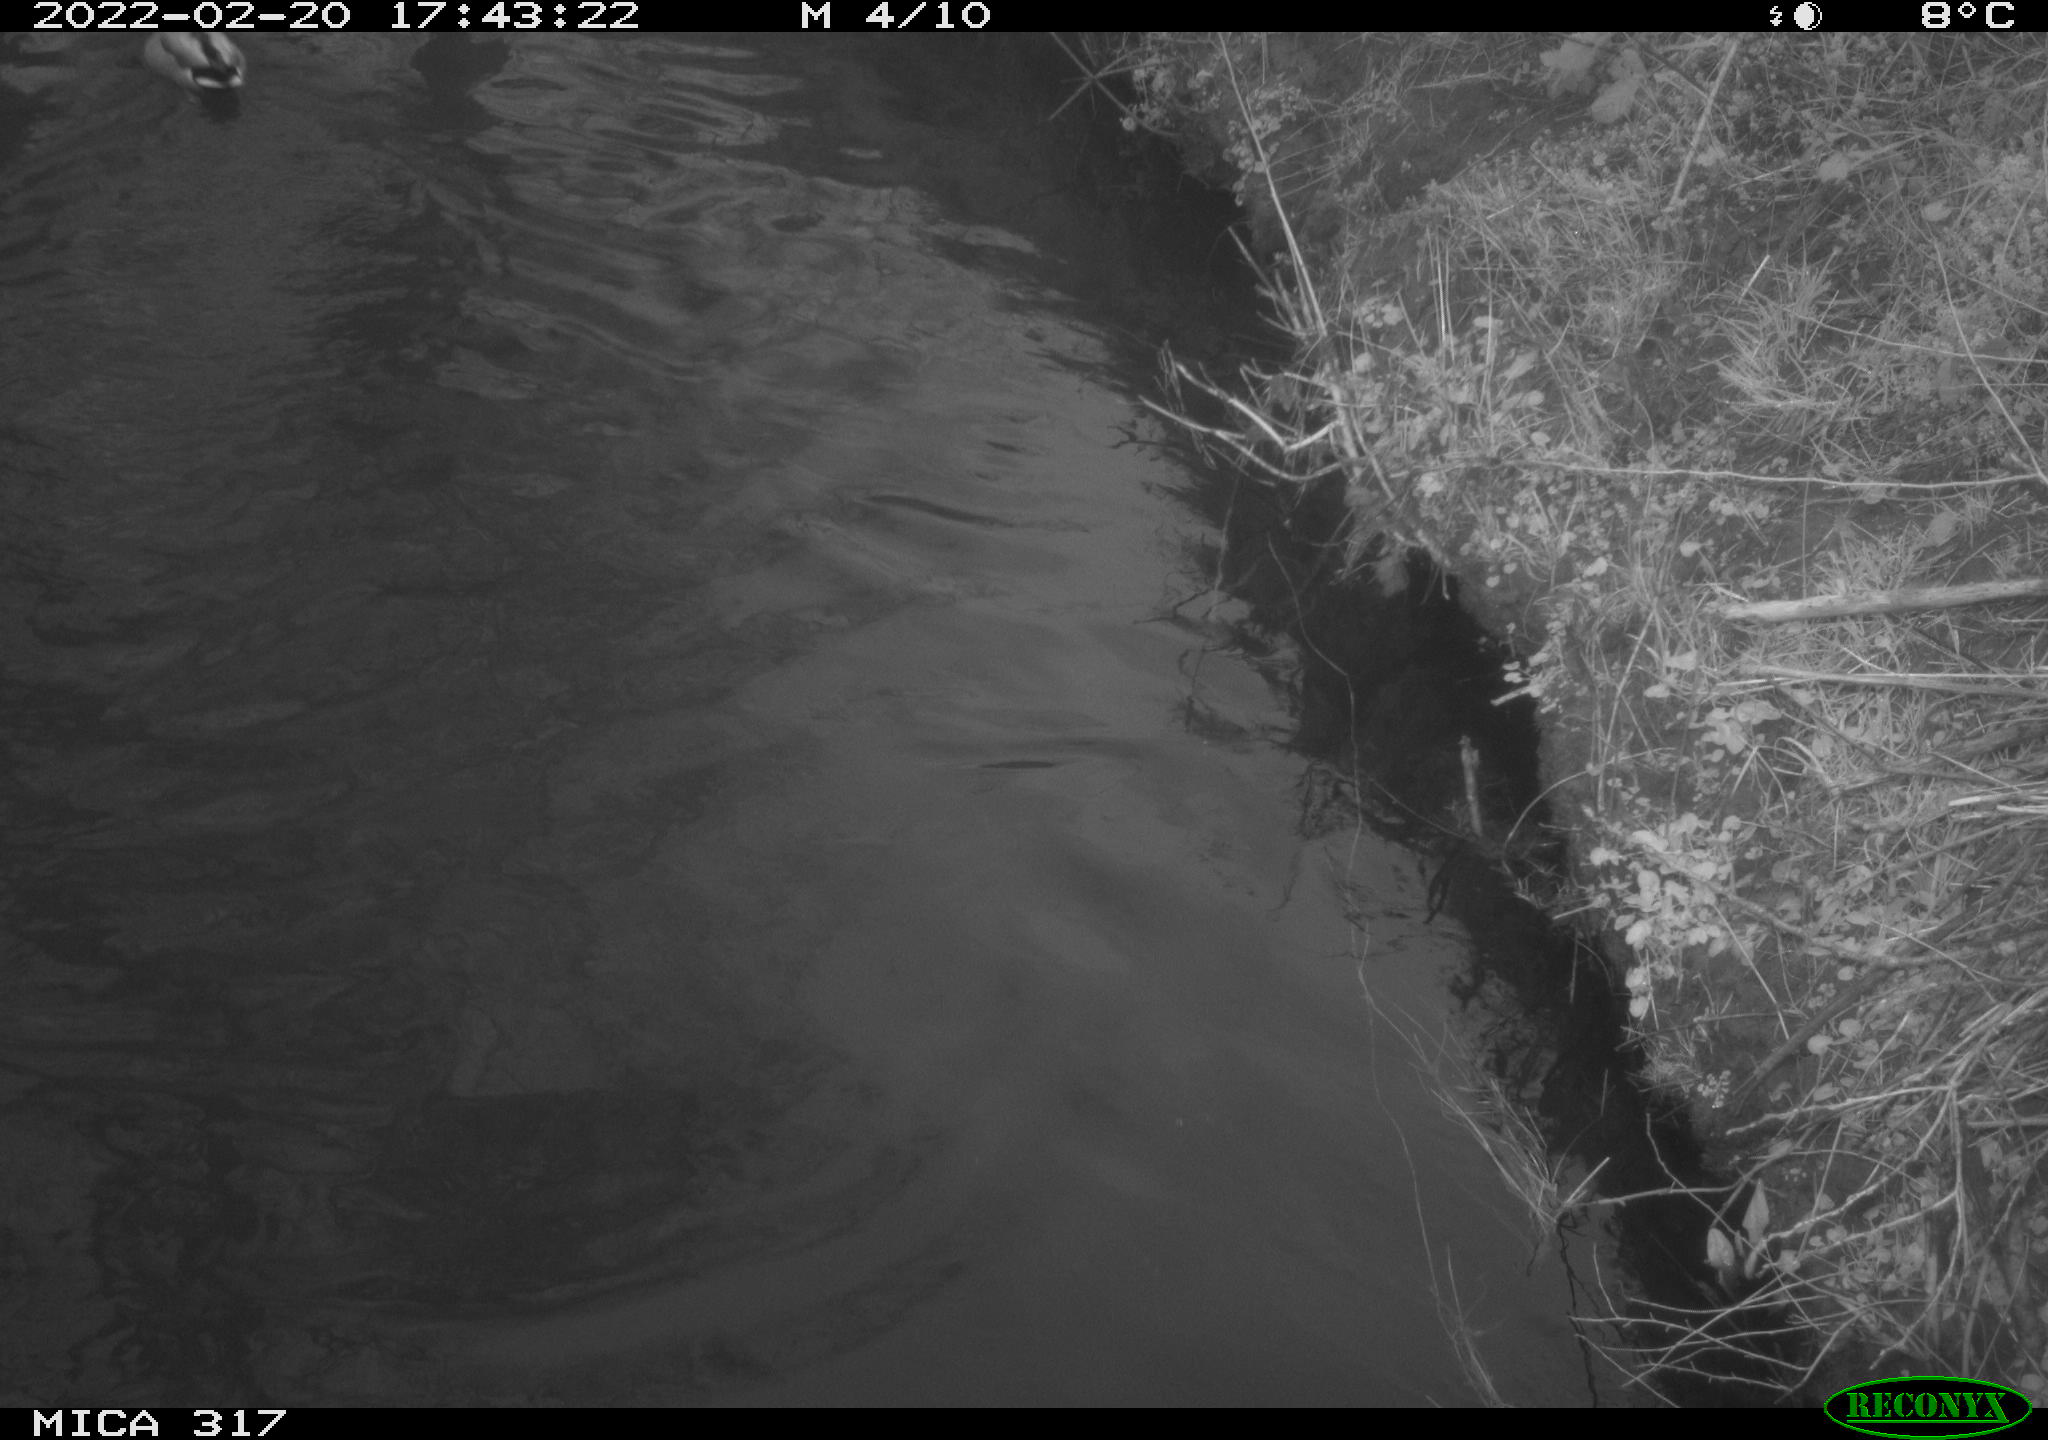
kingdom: Animalia
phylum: Chordata
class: Aves
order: Anseriformes
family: Anatidae
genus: Anas
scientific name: Anas platyrhynchos
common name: Mallard
